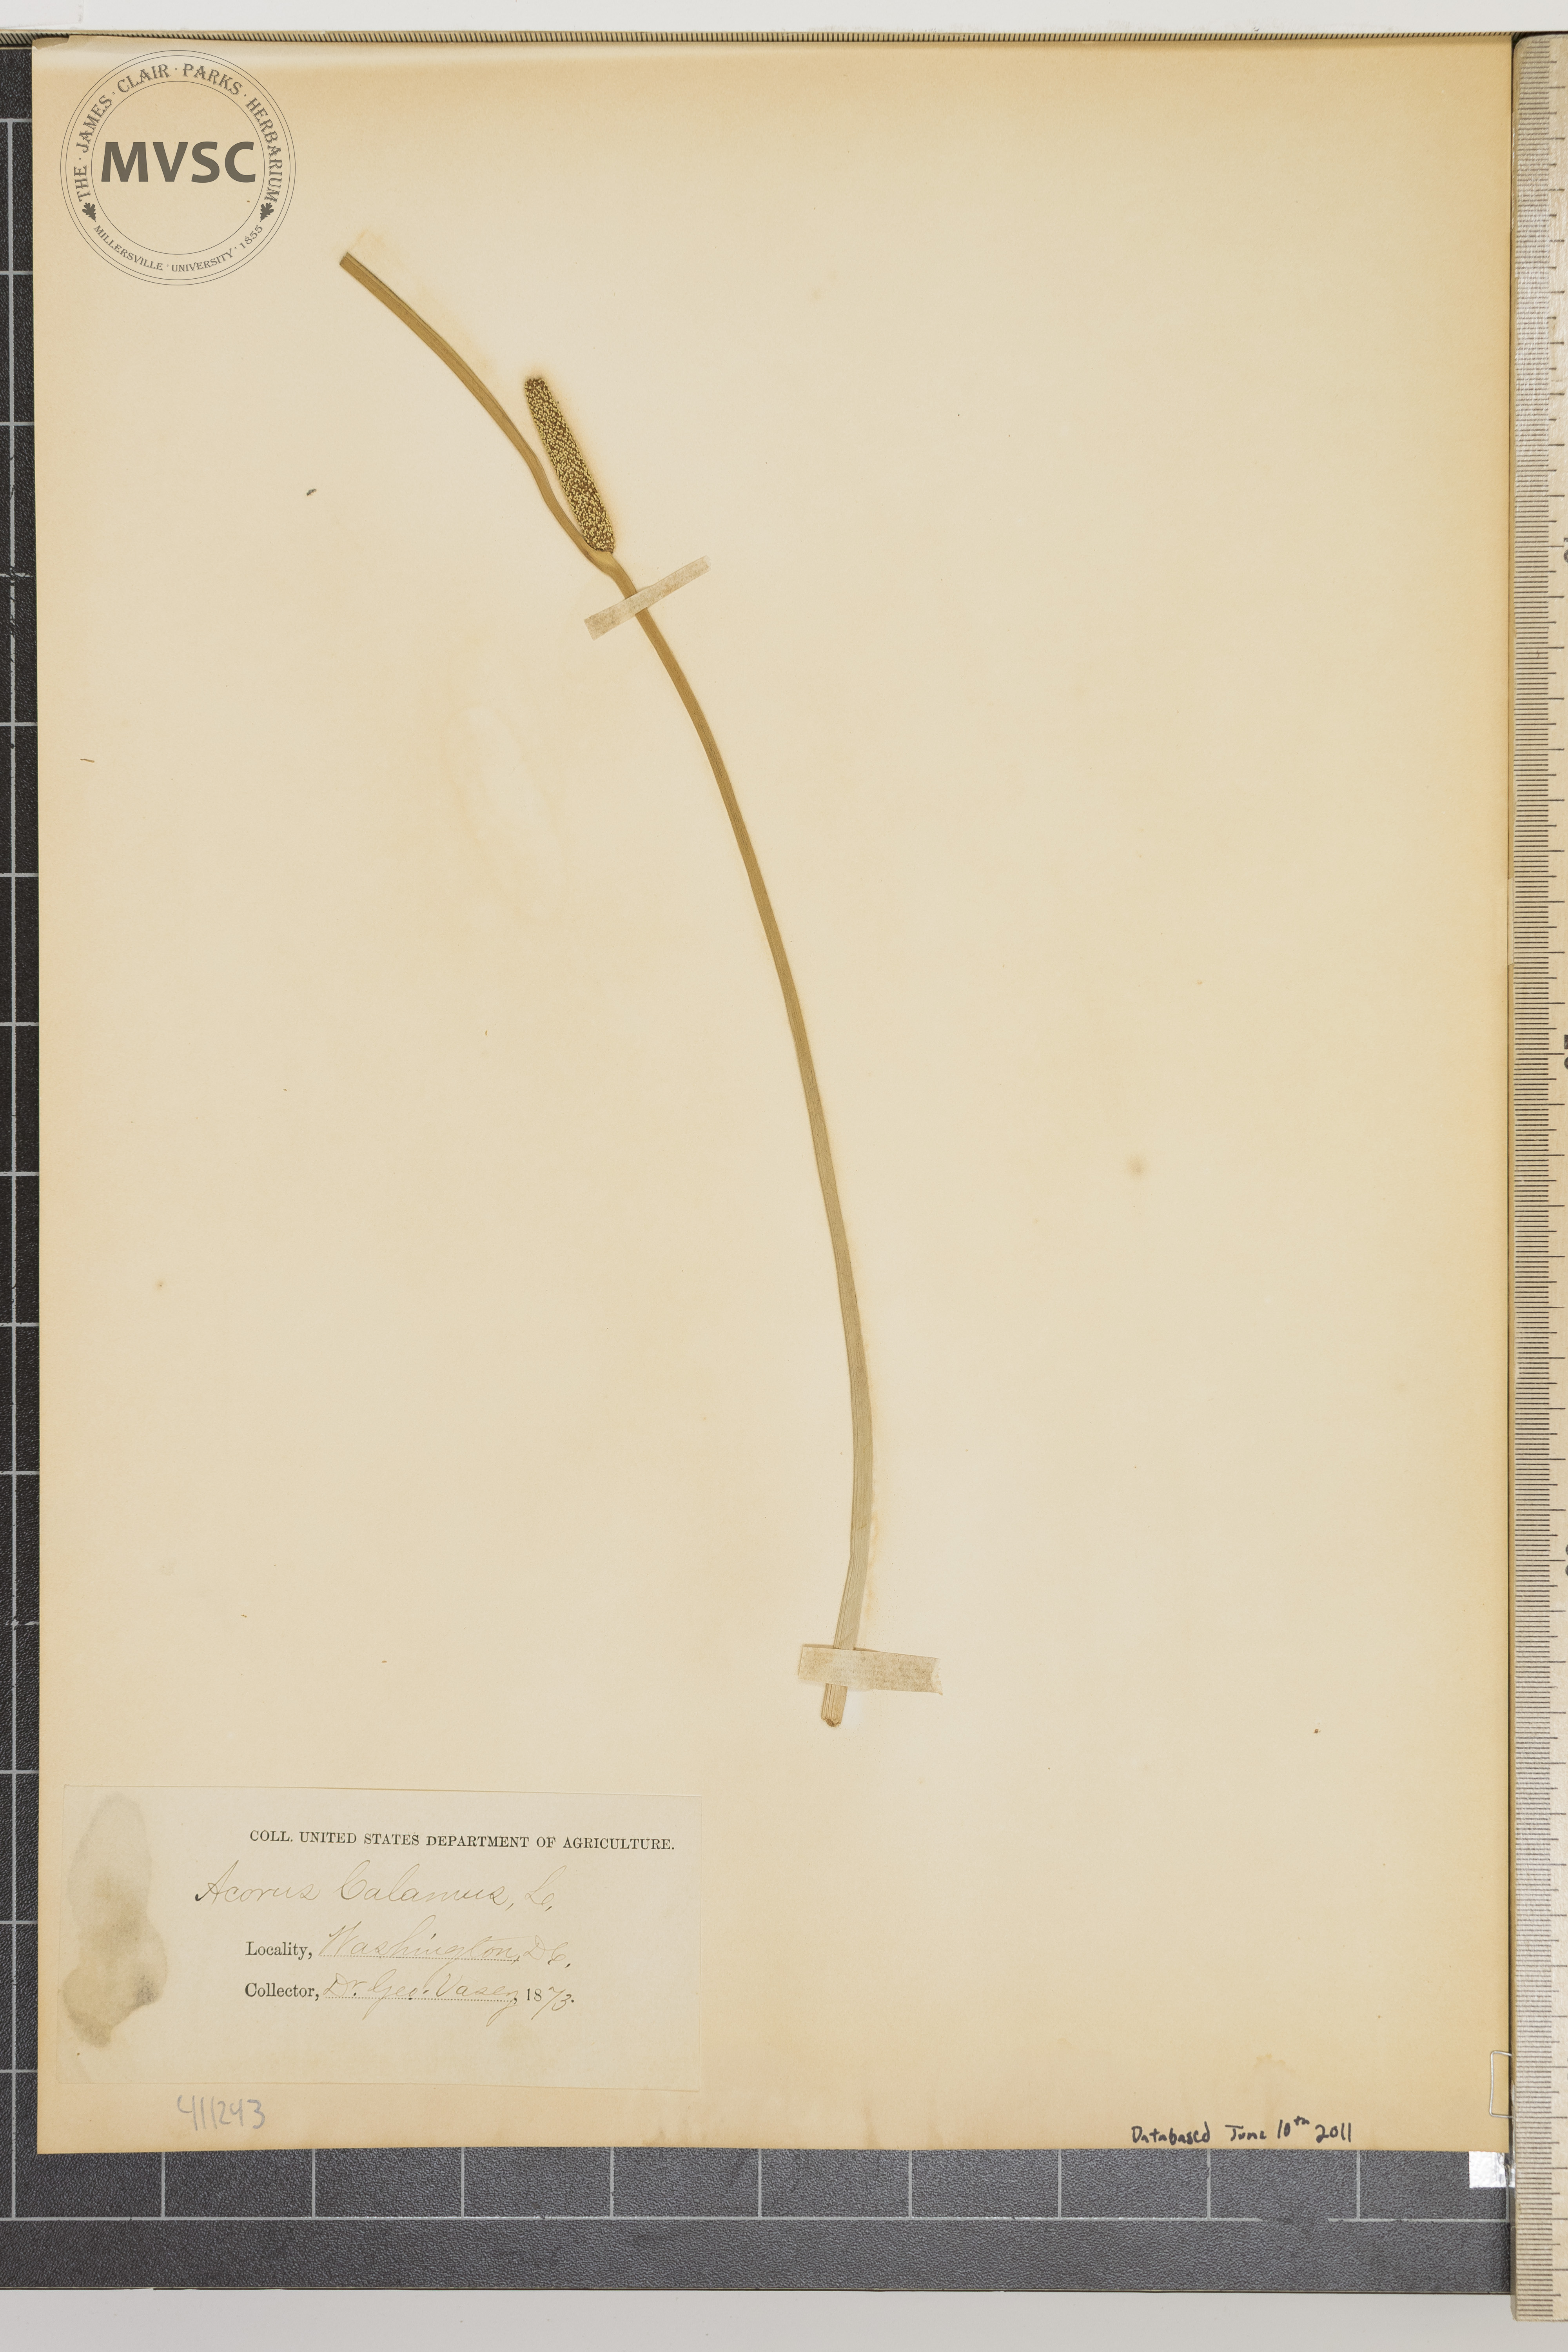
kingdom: Plantae
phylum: Tracheophyta
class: Liliopsida
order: Acorales
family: Acoraceae
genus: Acorus
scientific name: Acorus calamus
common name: Sweet-flag
